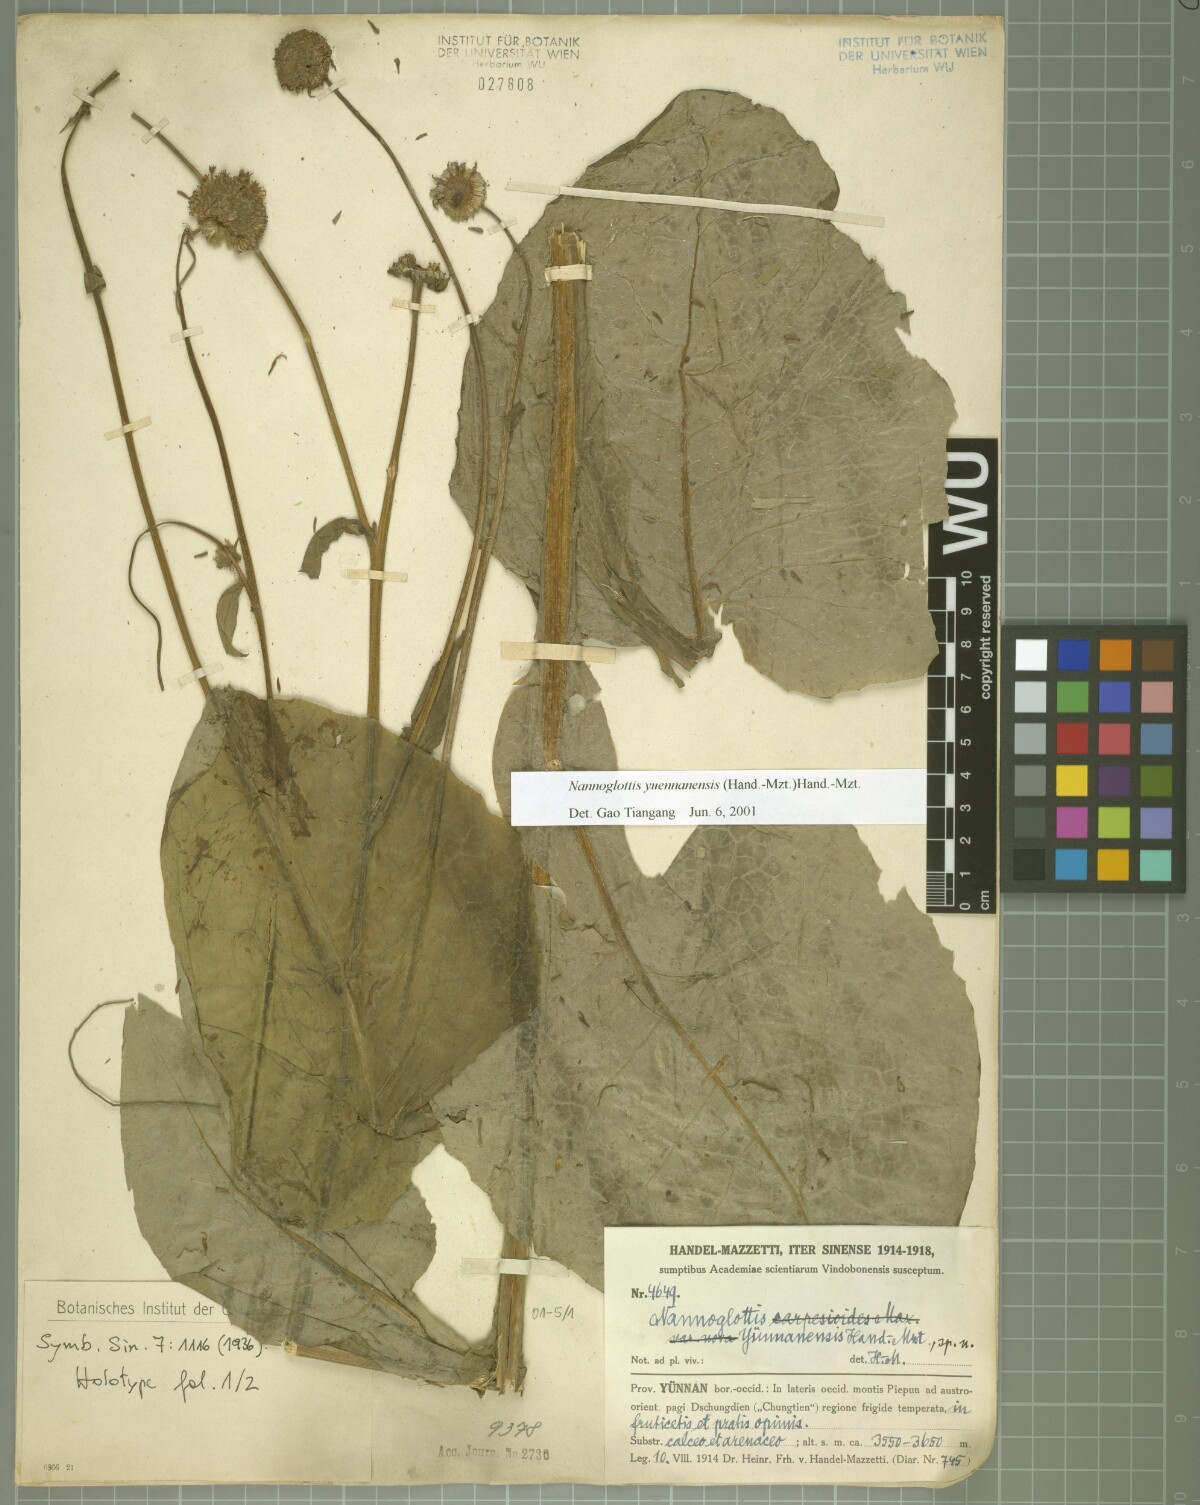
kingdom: Plantae
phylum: Tracheophyta
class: Magnoliopsida
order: Asterales
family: Asteraceae
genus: Nannoglottis
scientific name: Nannoglottis yuennanensis
